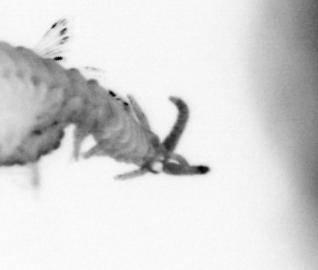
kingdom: Animalia
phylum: Annelida
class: Polychaeta
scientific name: Polychaeta
